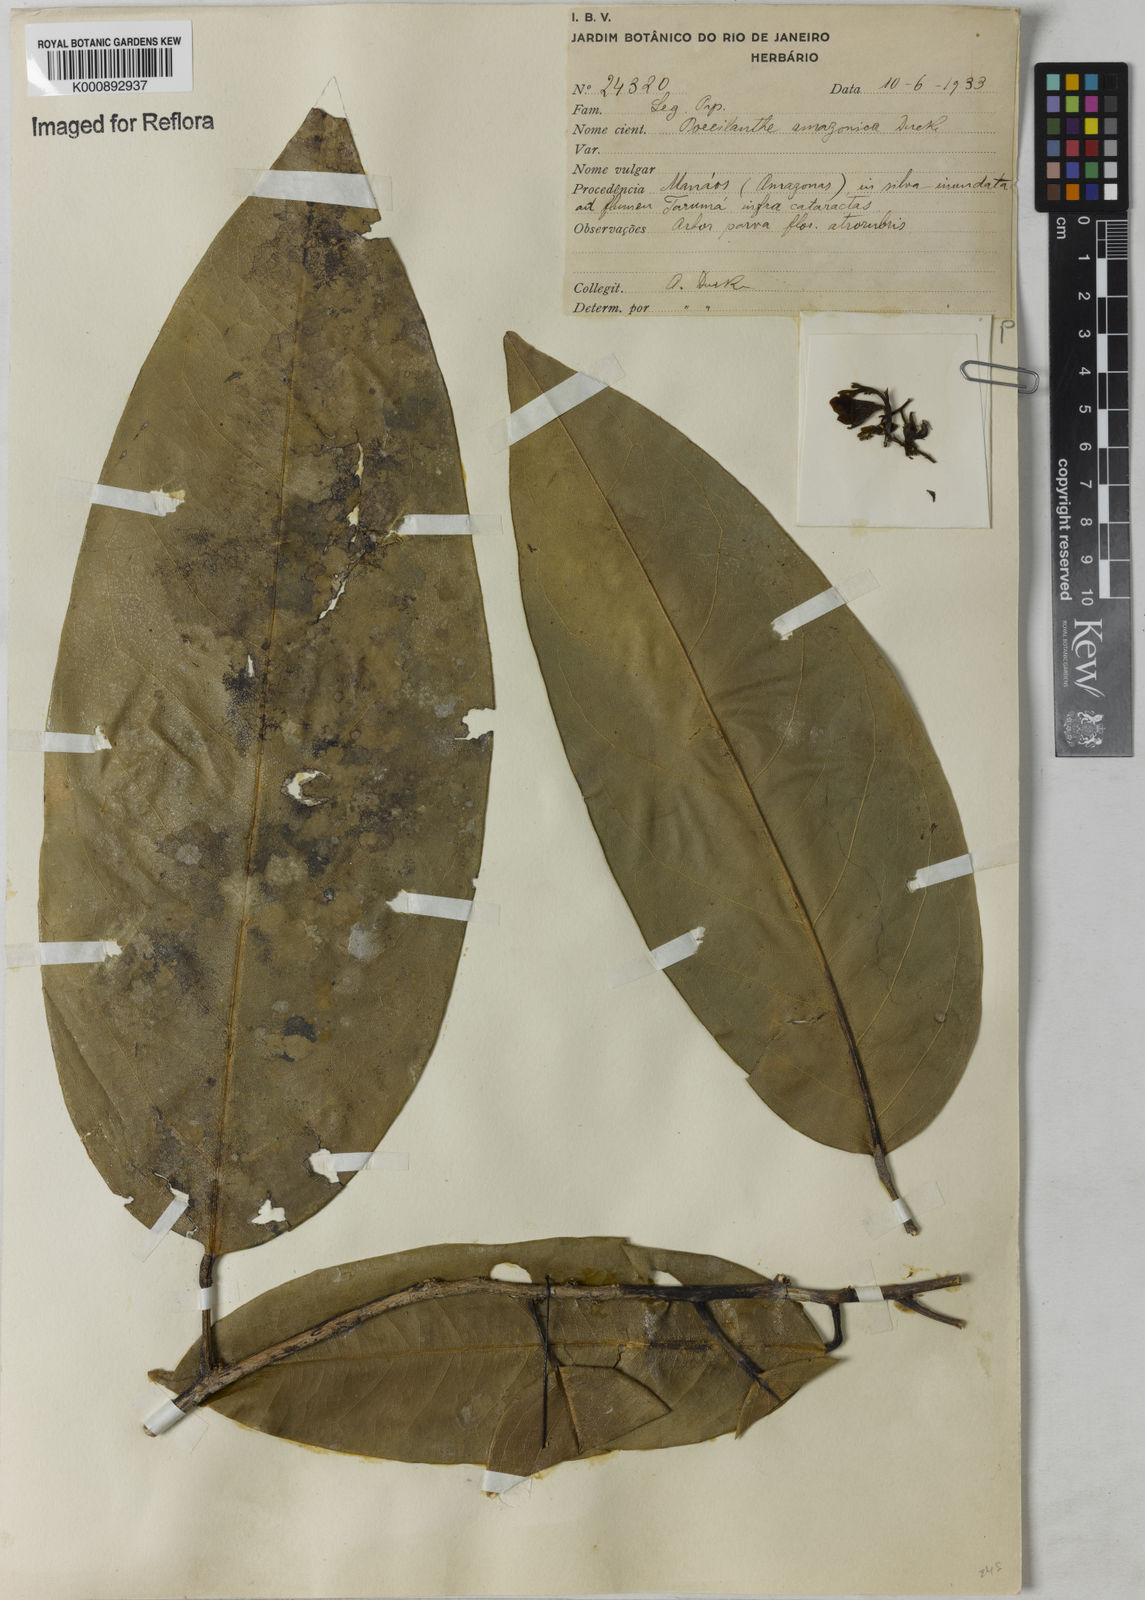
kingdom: Plantae
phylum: Tracheophyta
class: Magnoliopsida
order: Fabales
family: Fabaceae
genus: Limadendron
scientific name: Limadendron amazonicum
